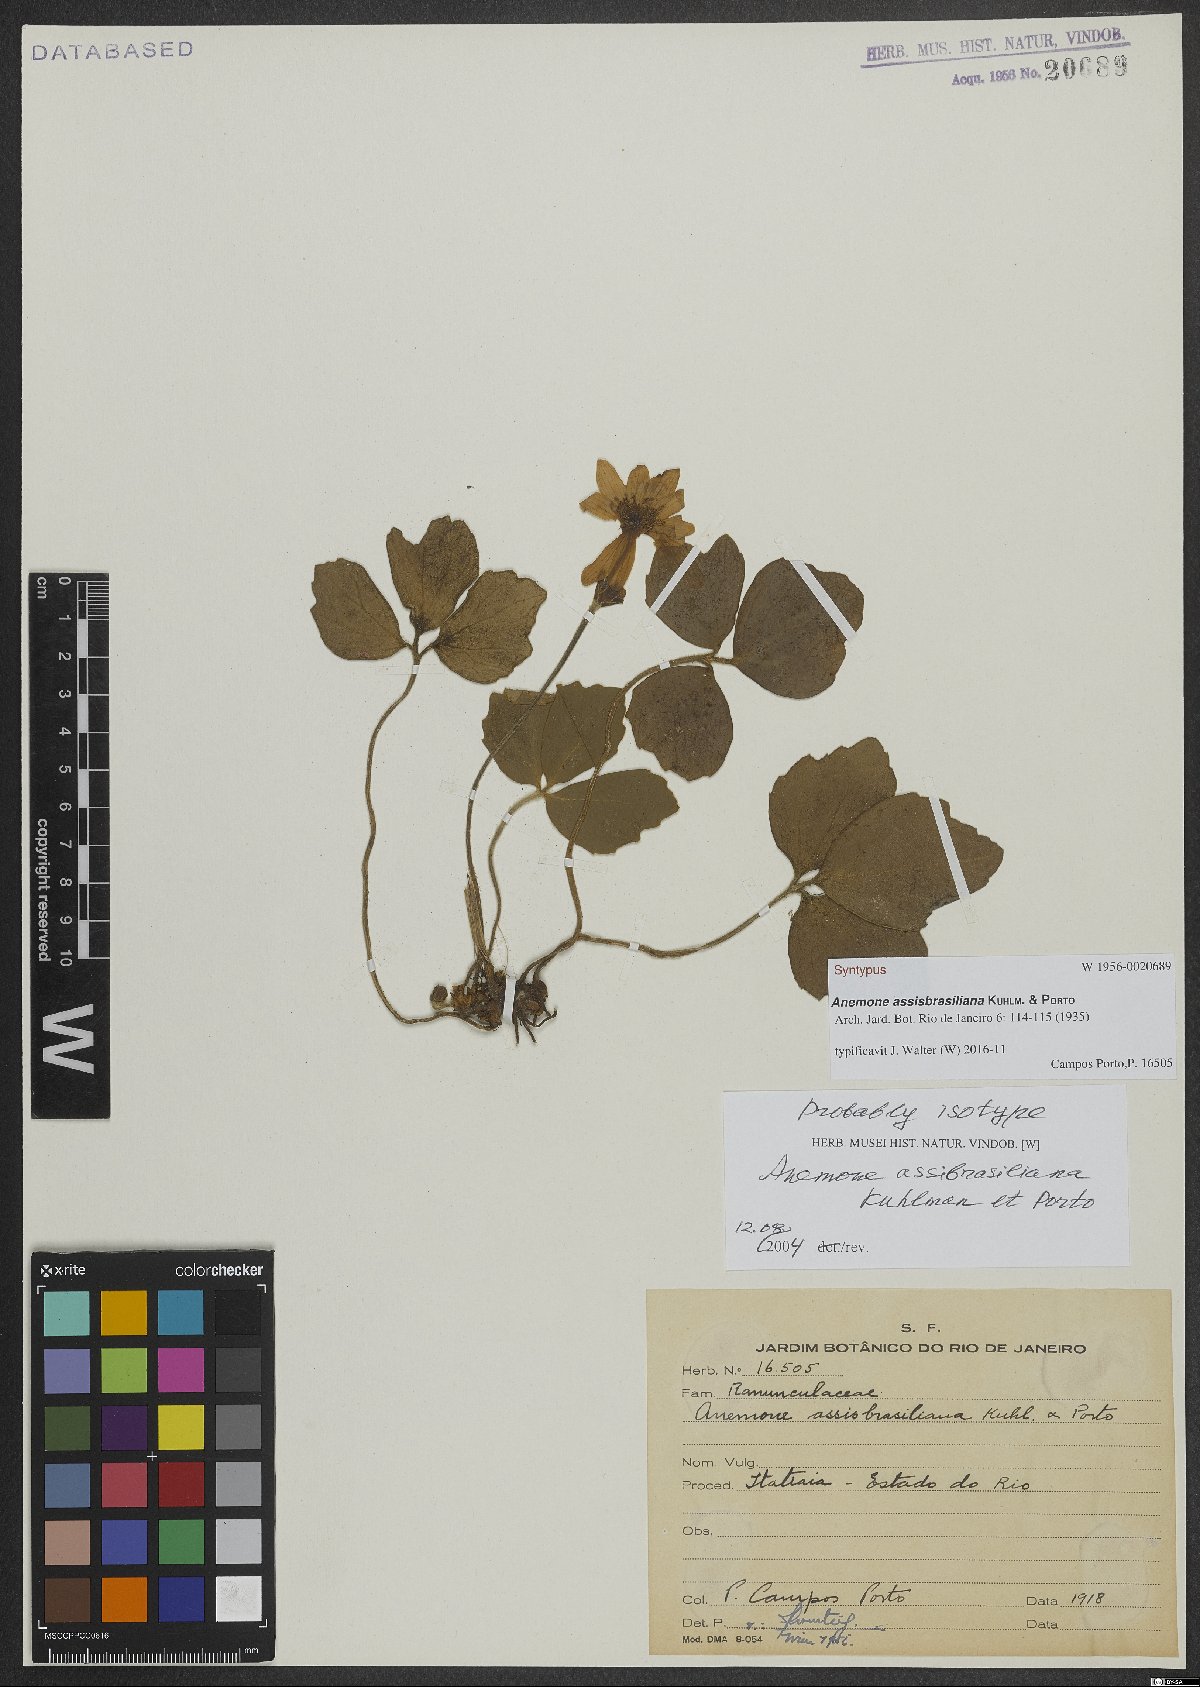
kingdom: Plantae
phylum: Tracheophyta
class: Magnoliopsida
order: Ranunculales
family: Ranunculaceae
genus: Knowltonia
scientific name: Knowltonia assisbrasiliana
